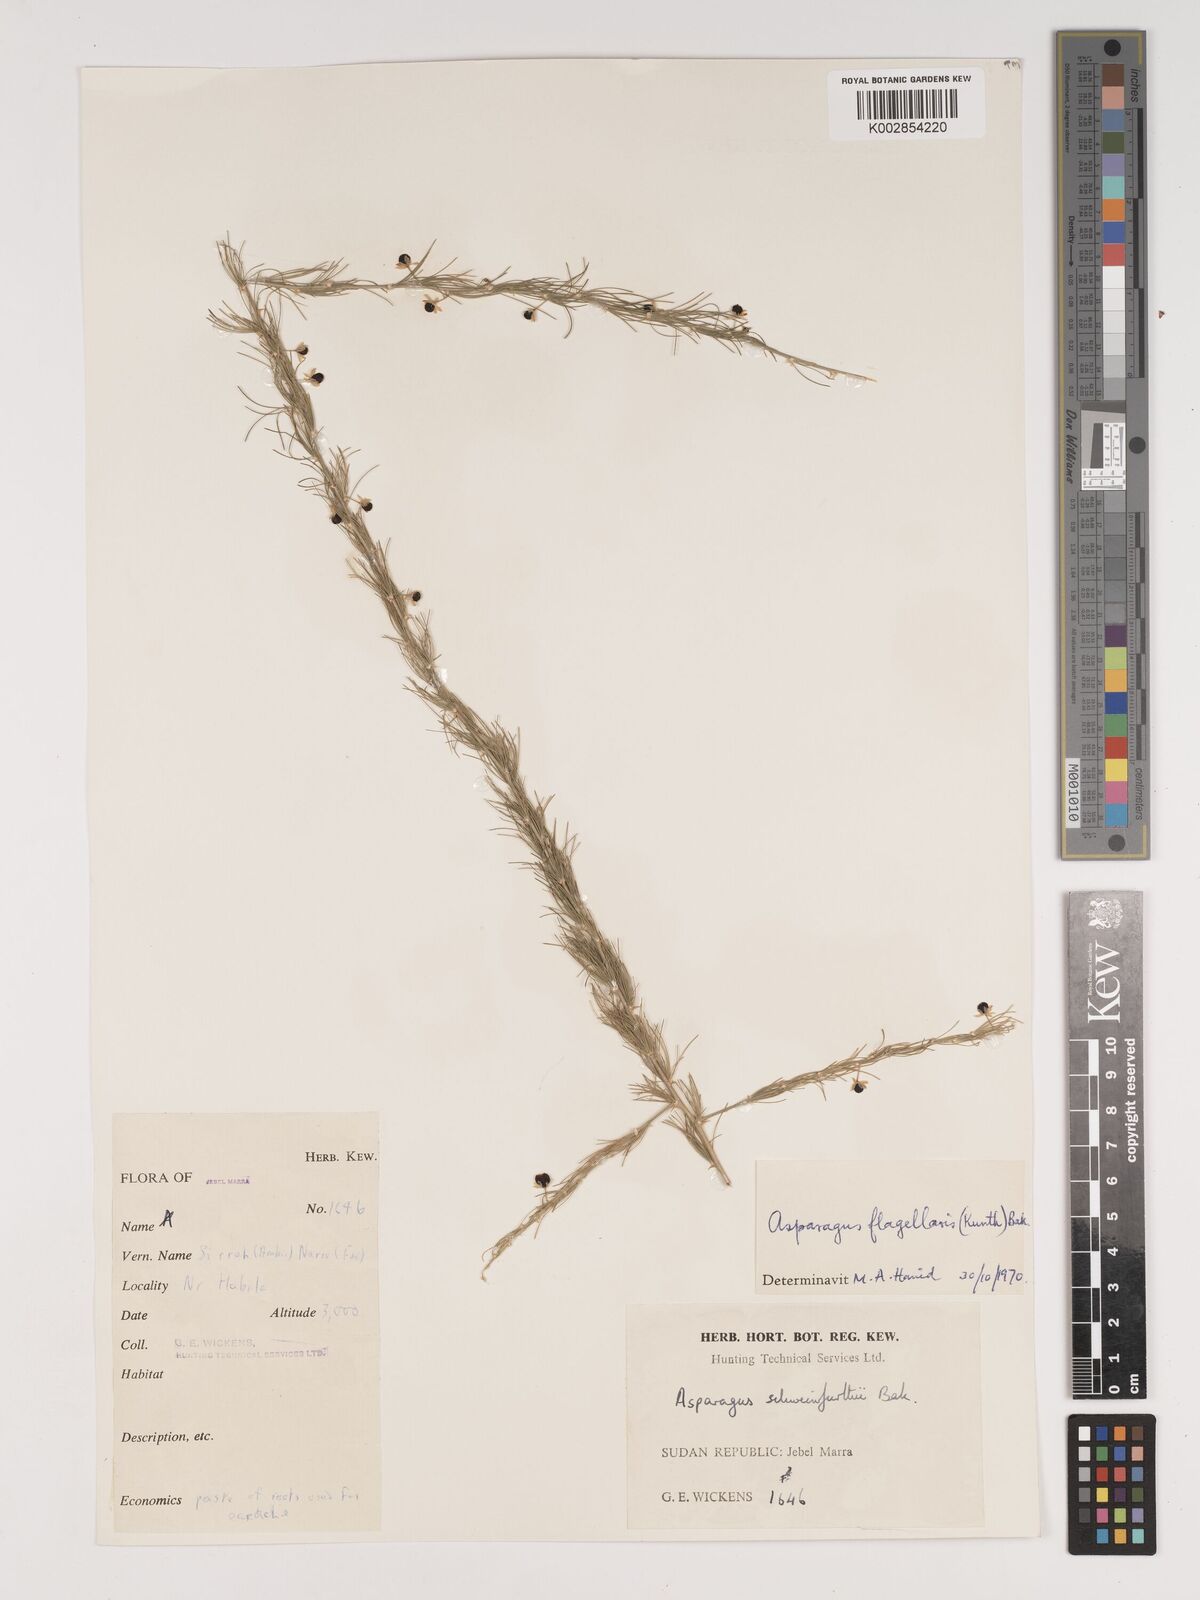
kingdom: Plantae
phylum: Tracheophyta
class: Liliopsida
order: Asparagales
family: Asparagaceae
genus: Asparagus
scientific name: Asparagus flagellaris
